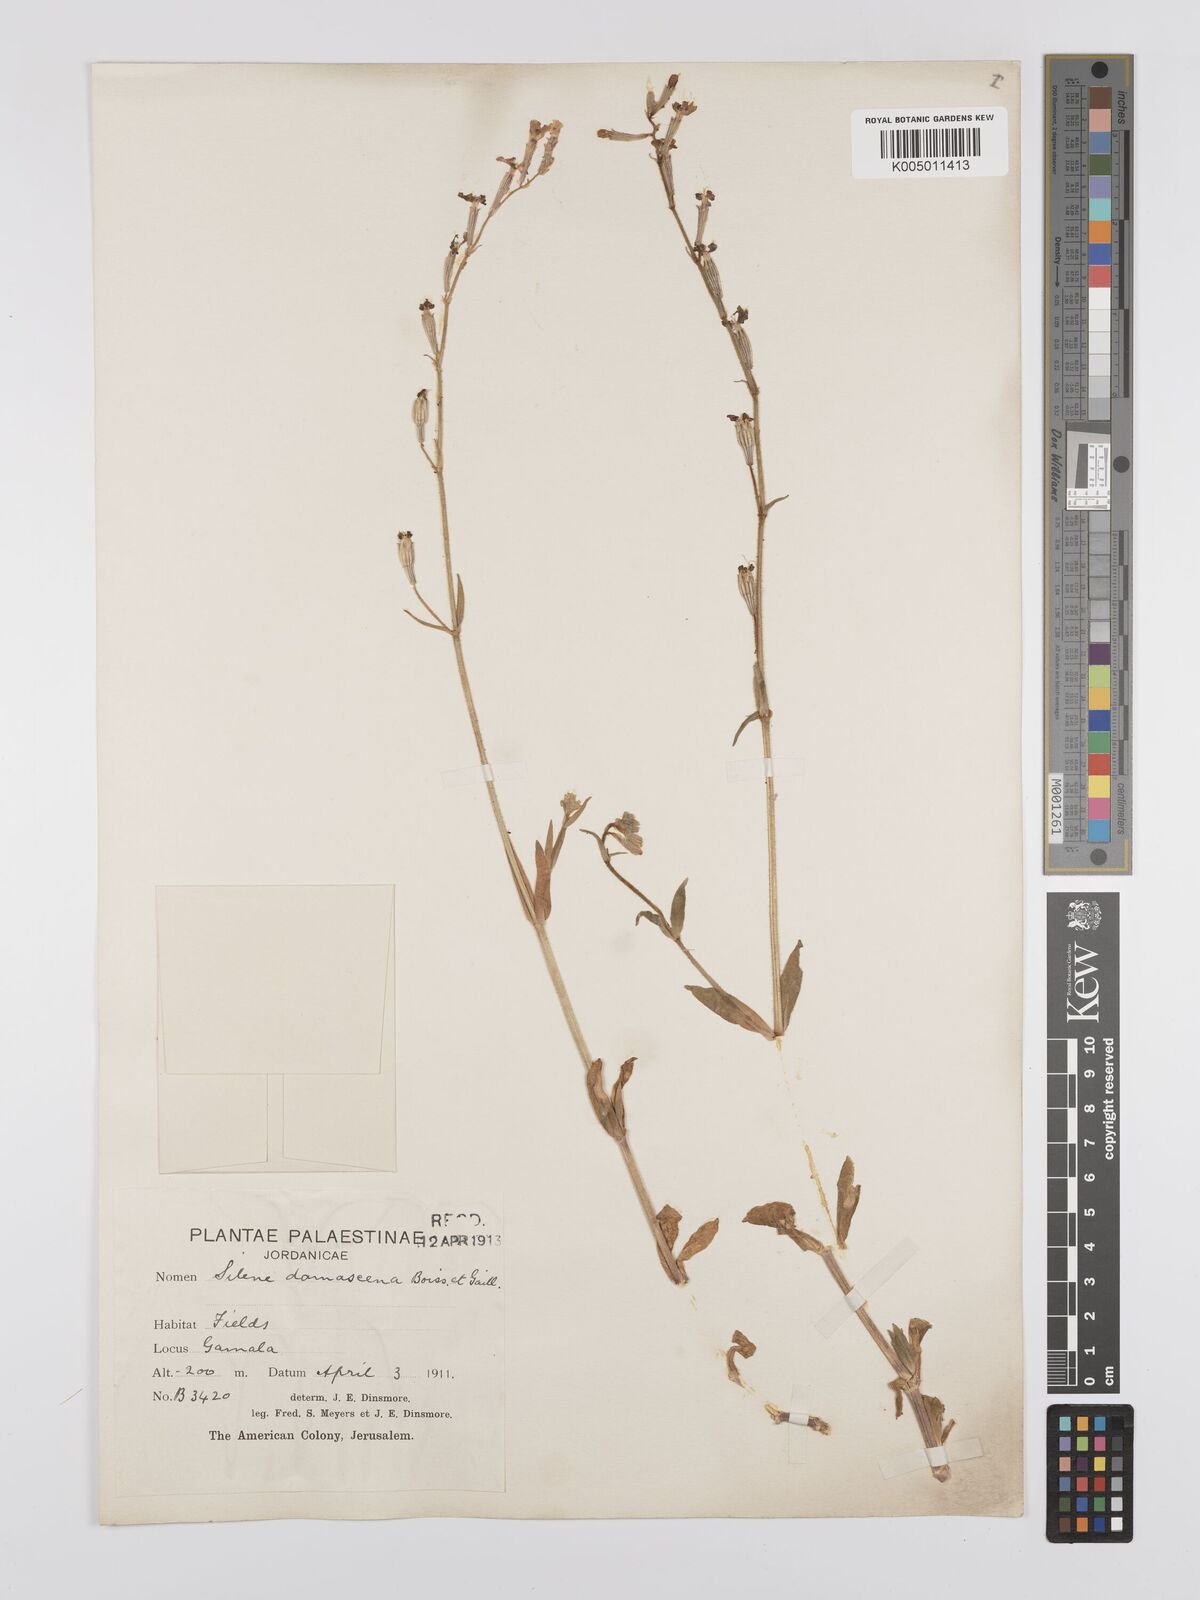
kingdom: Plantae
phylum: Tracheophyta
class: Magnoliopsida
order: Caryophyllales
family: Caryophyllaceae
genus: Silene
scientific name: Silene damascena
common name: Damascus catchfly
